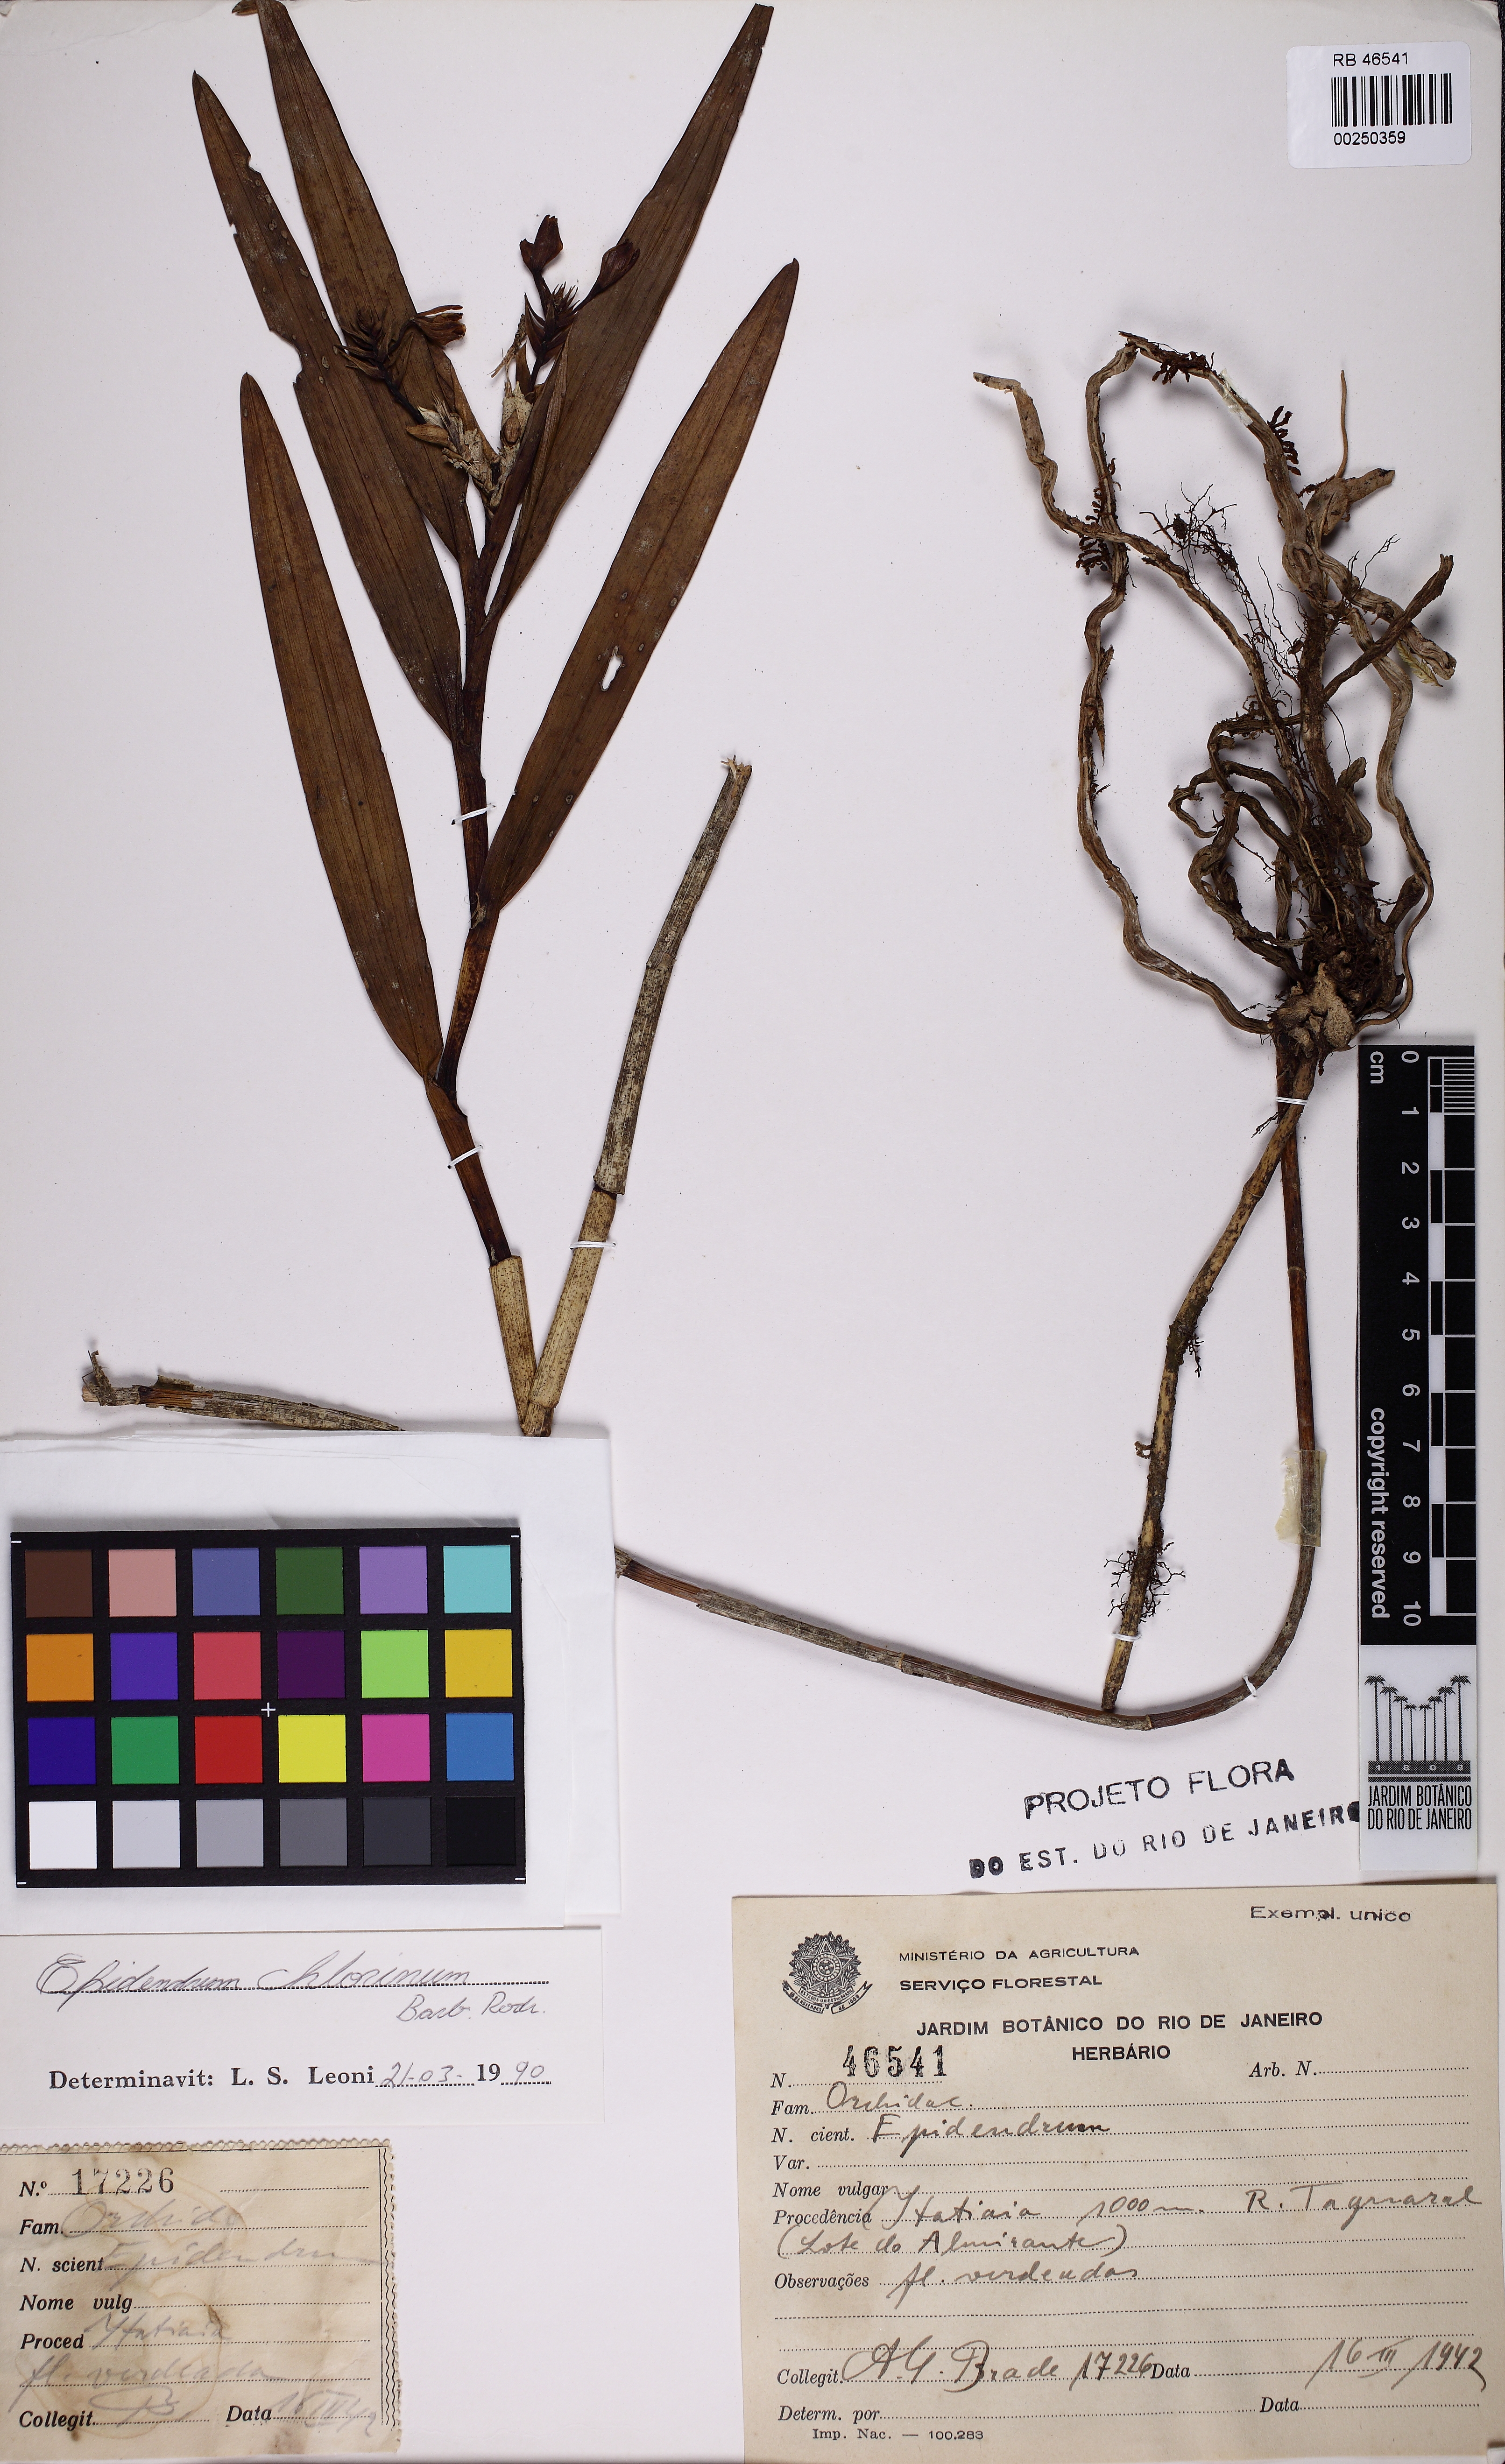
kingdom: Plantae
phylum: Tracheophyta
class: Liliopsida
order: Asparagales
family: Orchidaceae
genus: Epidendrum
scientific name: Epidendrum chlorinum
